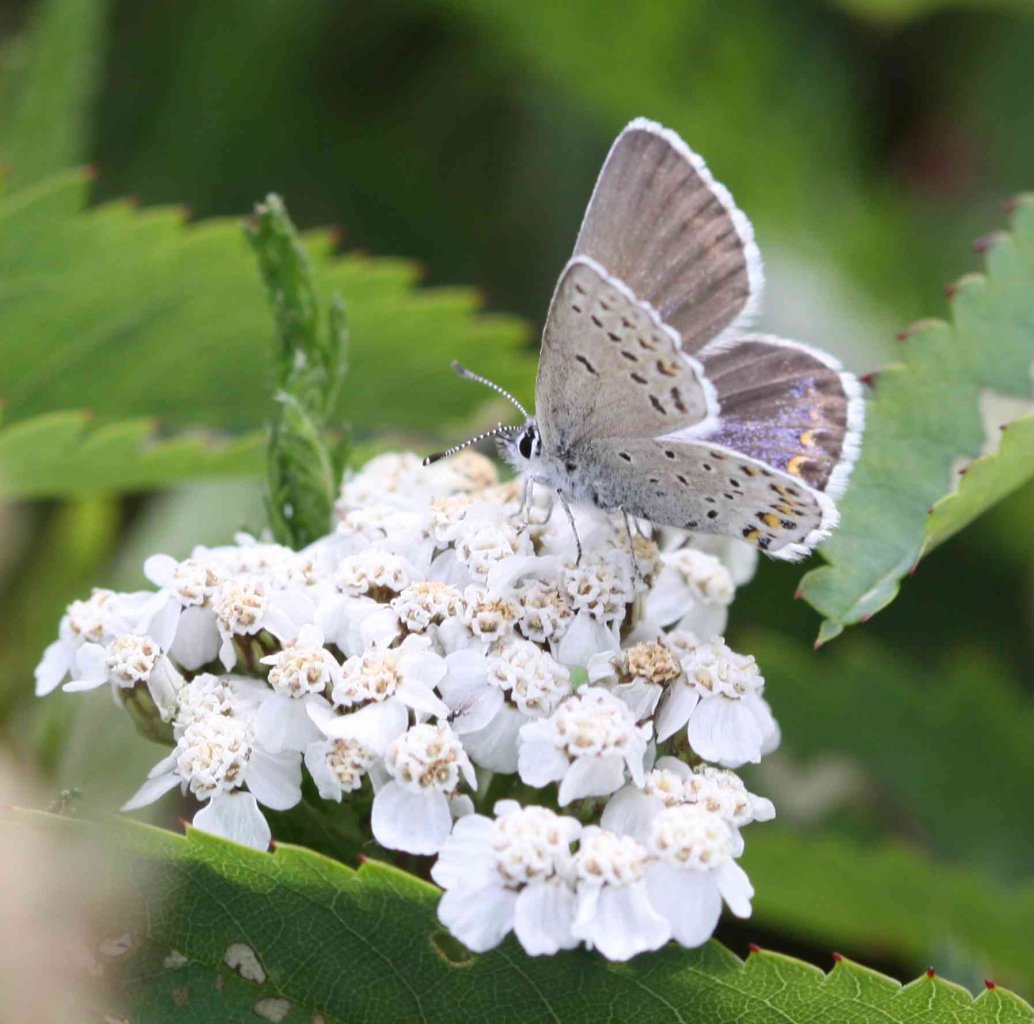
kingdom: Animalia
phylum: Arthropoda
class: Insecta
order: Lepidoptera
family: Lycaenidae
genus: Lycaeides
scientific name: Lycaeides idas
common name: Northern Blue
